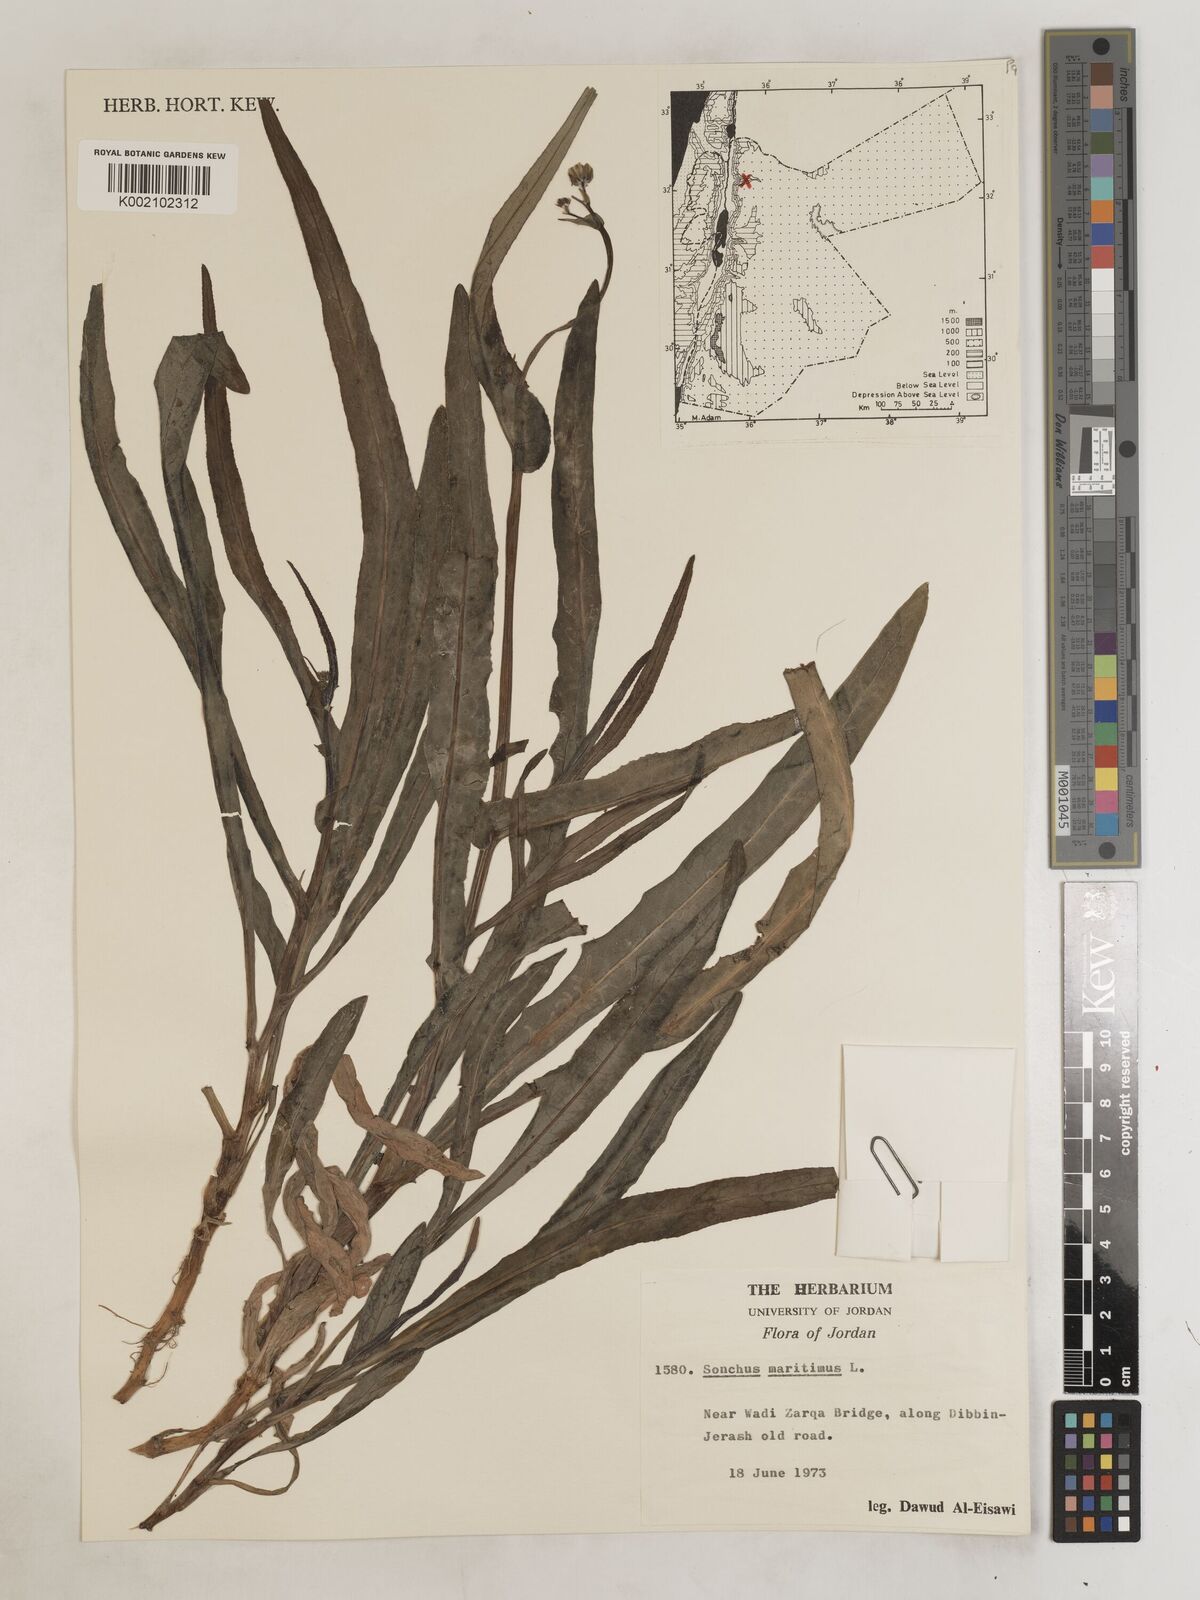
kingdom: Plantae
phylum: Tracheophyta
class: Magnoliopsida
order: Asterales
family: Asteraceae
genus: Sonchus
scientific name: Sonchus maritimus
